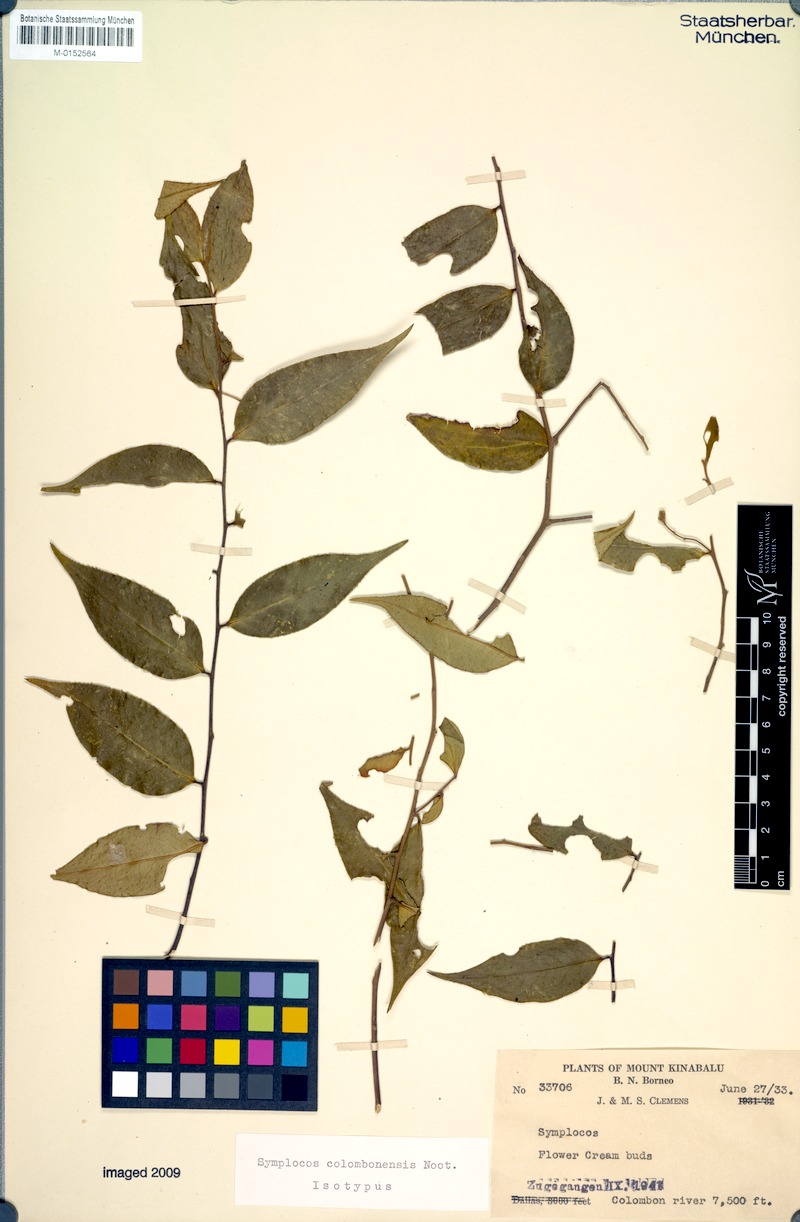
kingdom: Plantae
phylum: Tracheophyta
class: Magnoliopsida
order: Ericales
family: Symplocaceae
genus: Symplocos
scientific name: Symplocos colombonensis
